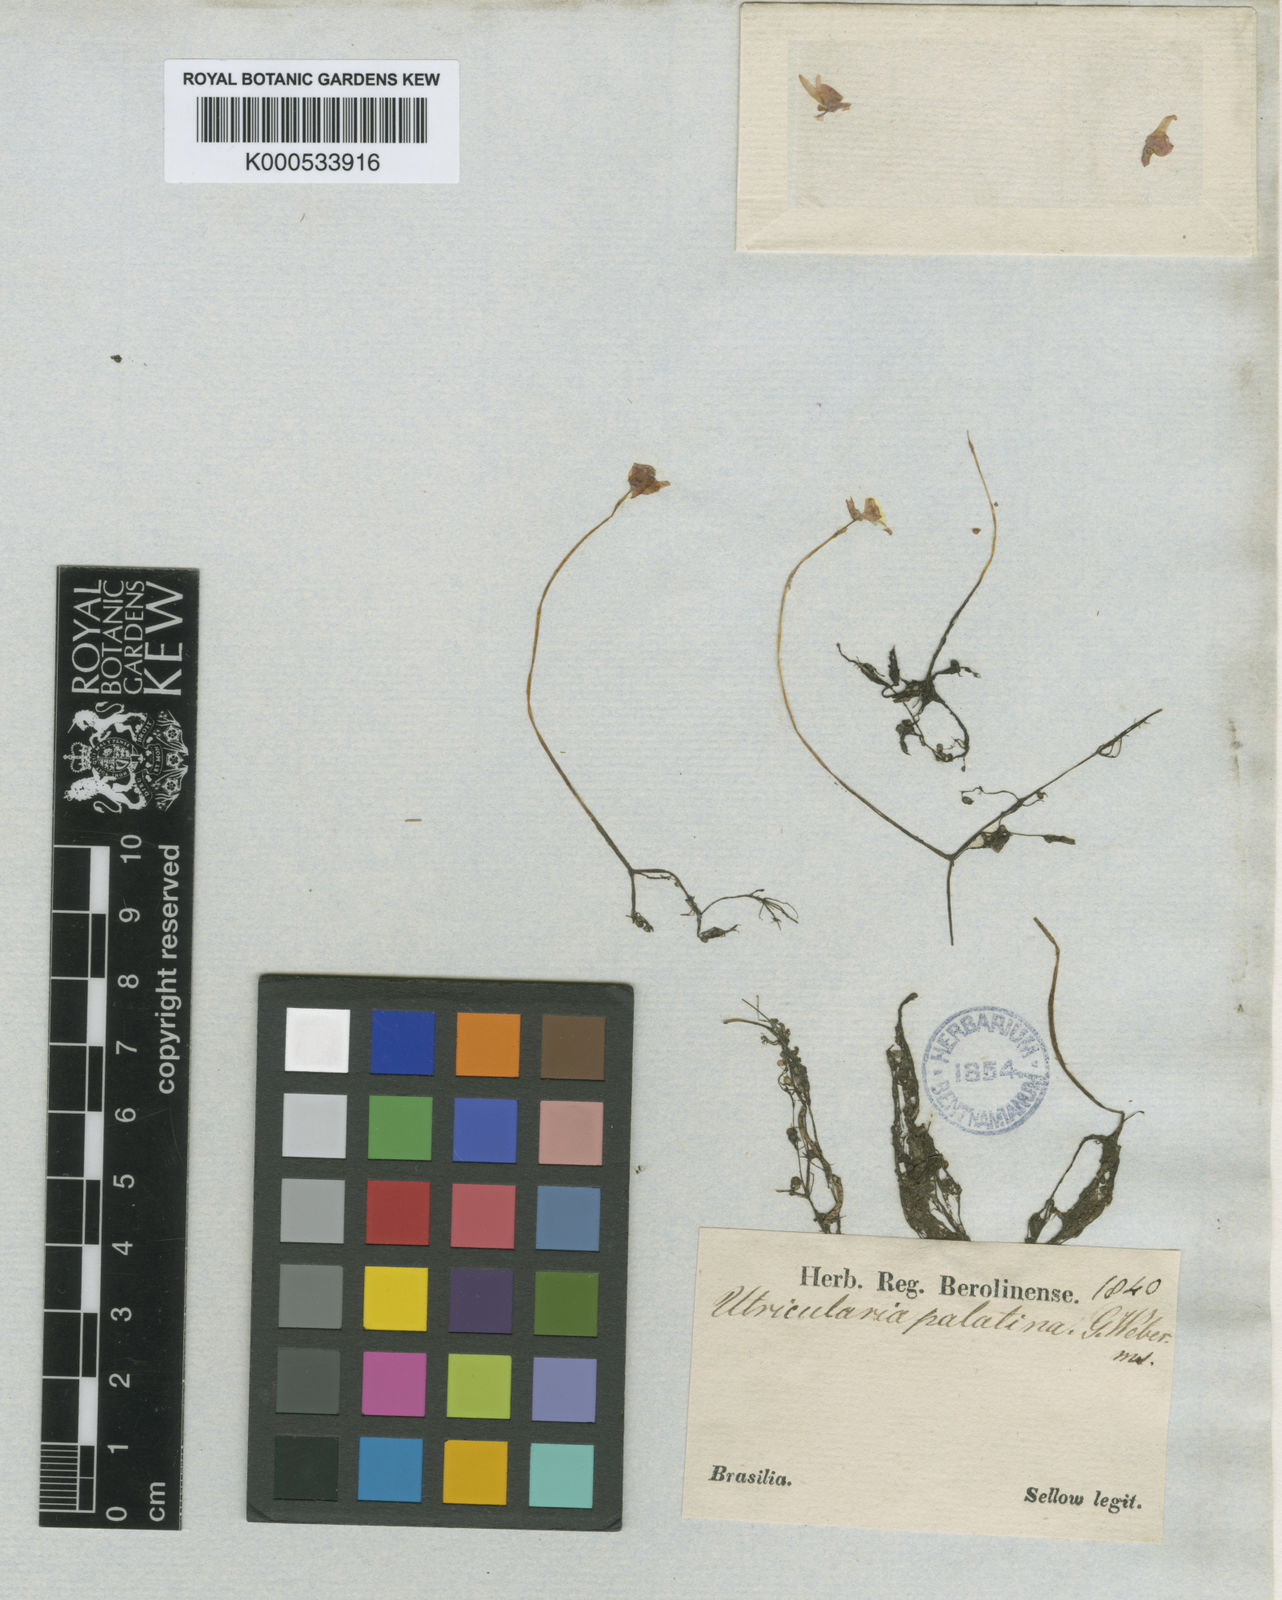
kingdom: Plantae
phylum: Tracheophyta
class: Magnoliopsida
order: Lamiales
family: Lentibulariaceae
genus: Utricularia
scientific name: Utricularia cucullata
